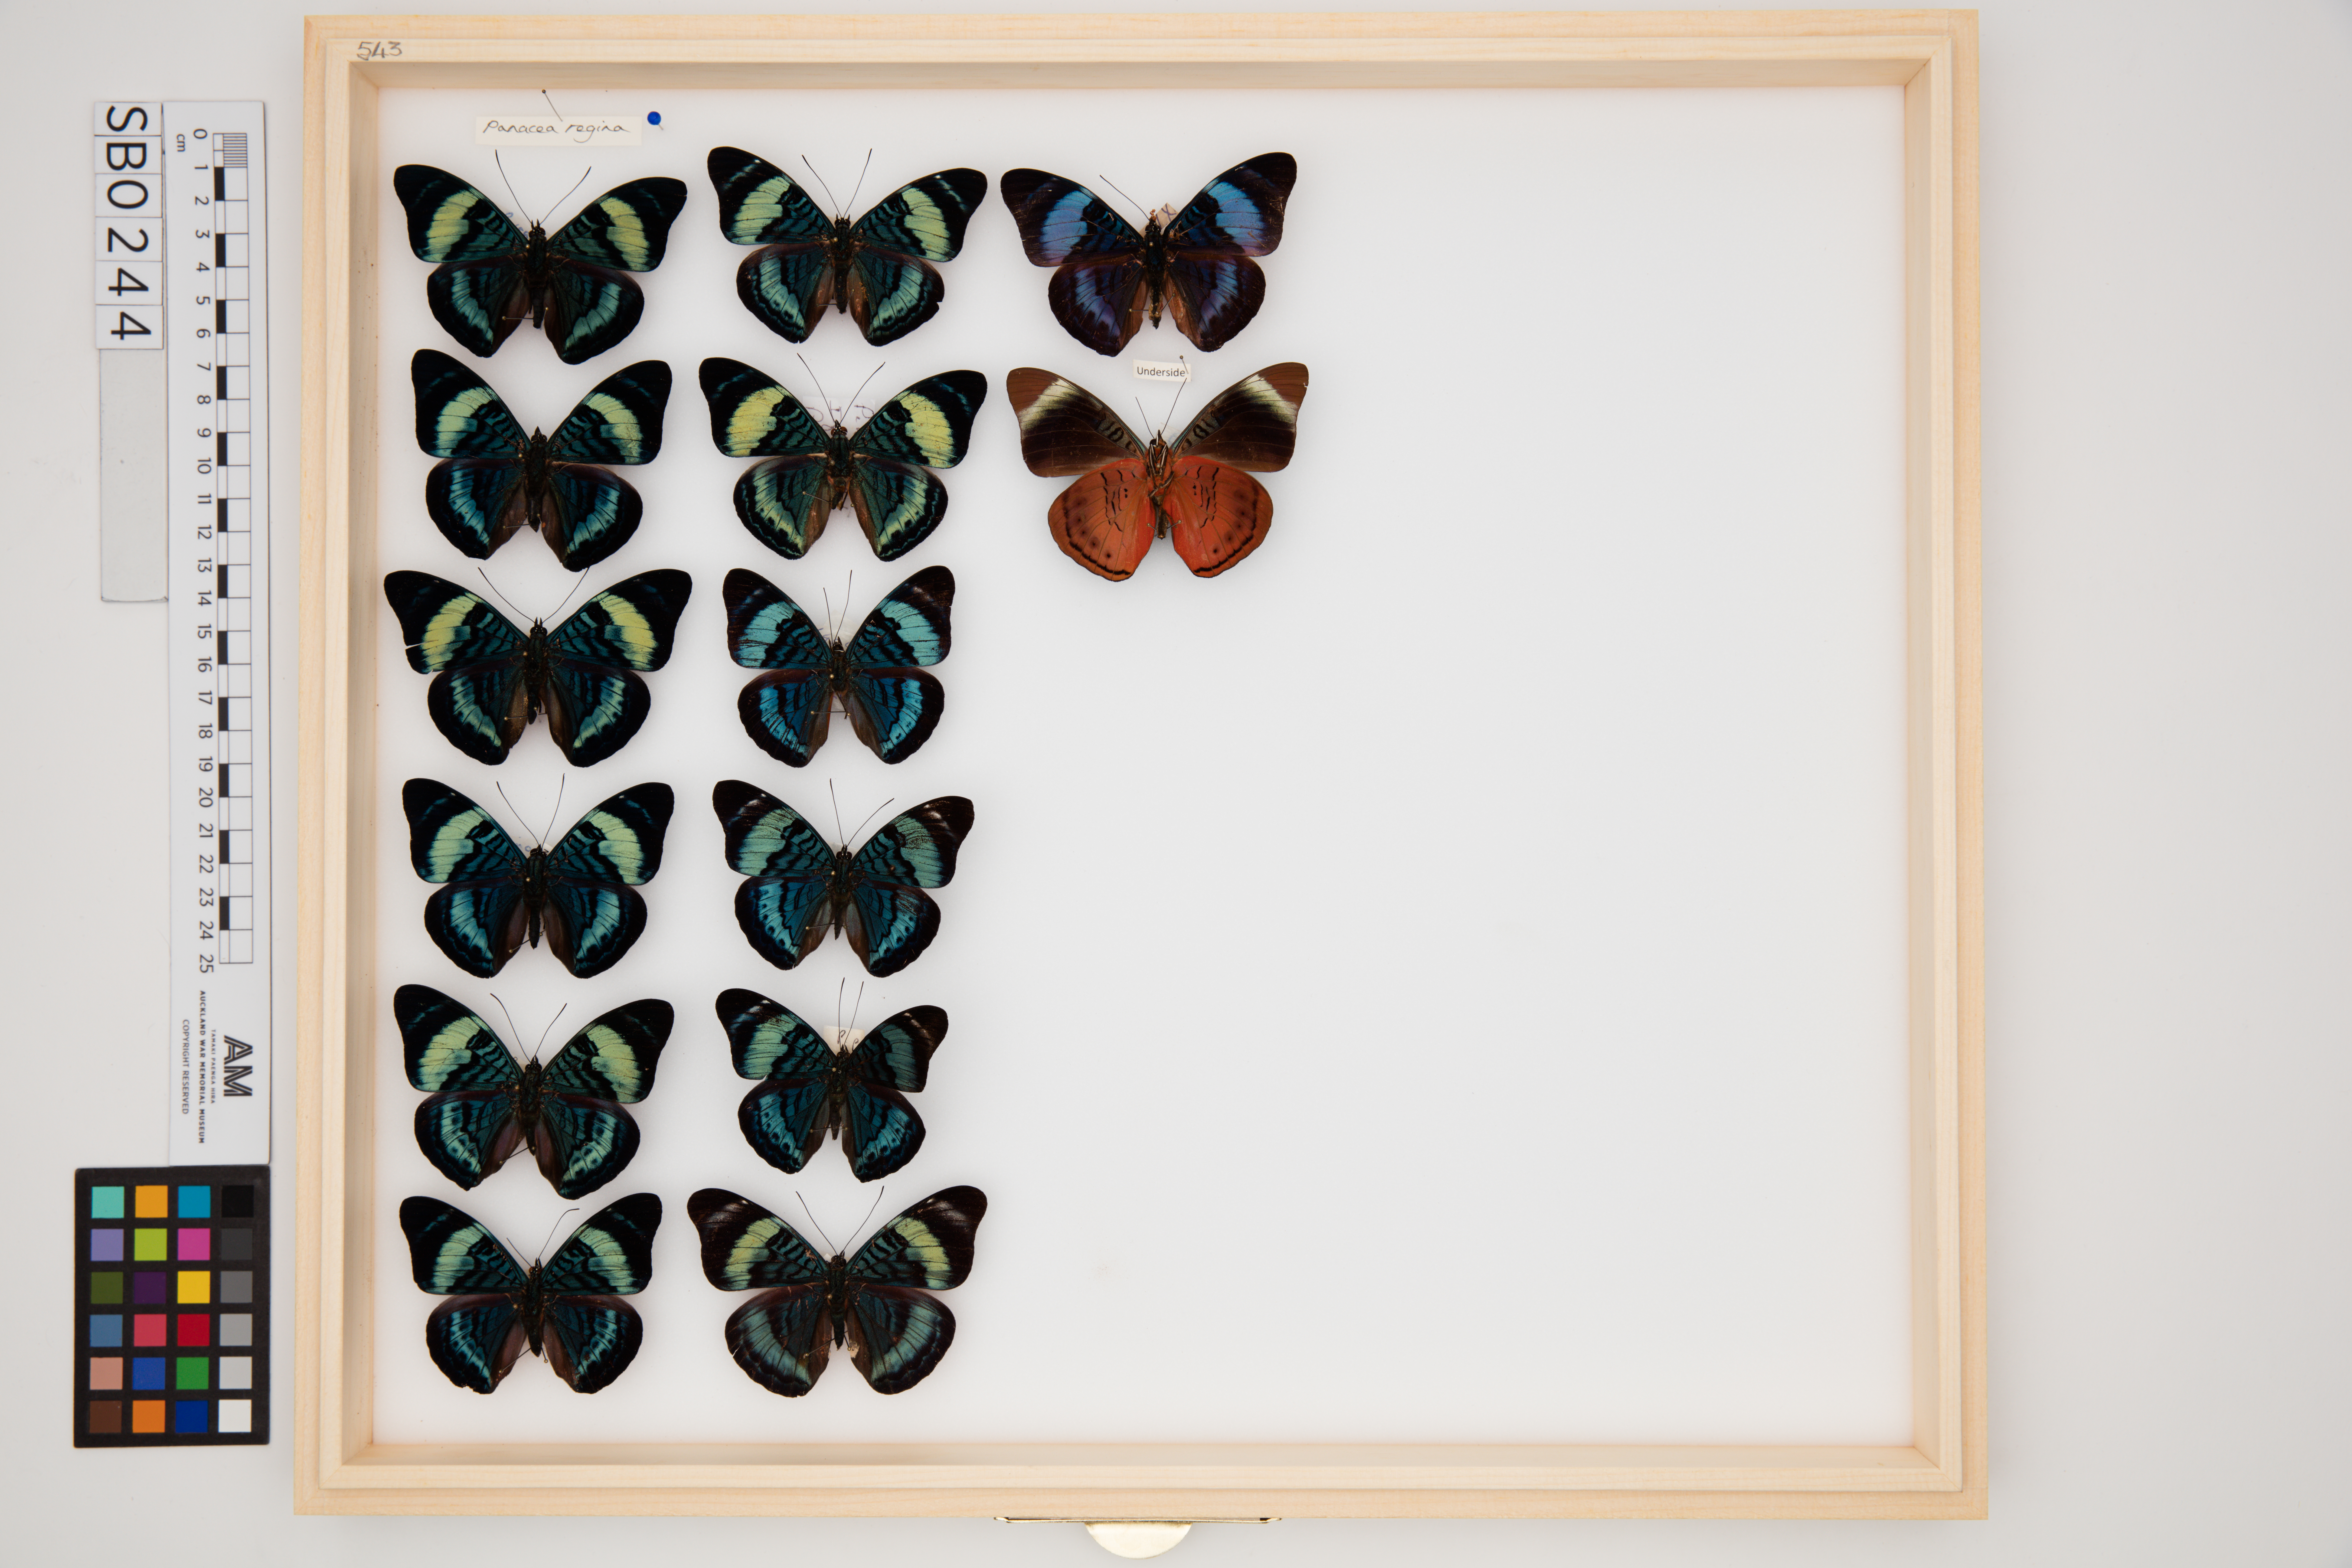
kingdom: Animalia
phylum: Arthropoda
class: Insecta
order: Lepidoptera
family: Nymphalidae
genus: Panacea
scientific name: Panacea regina
